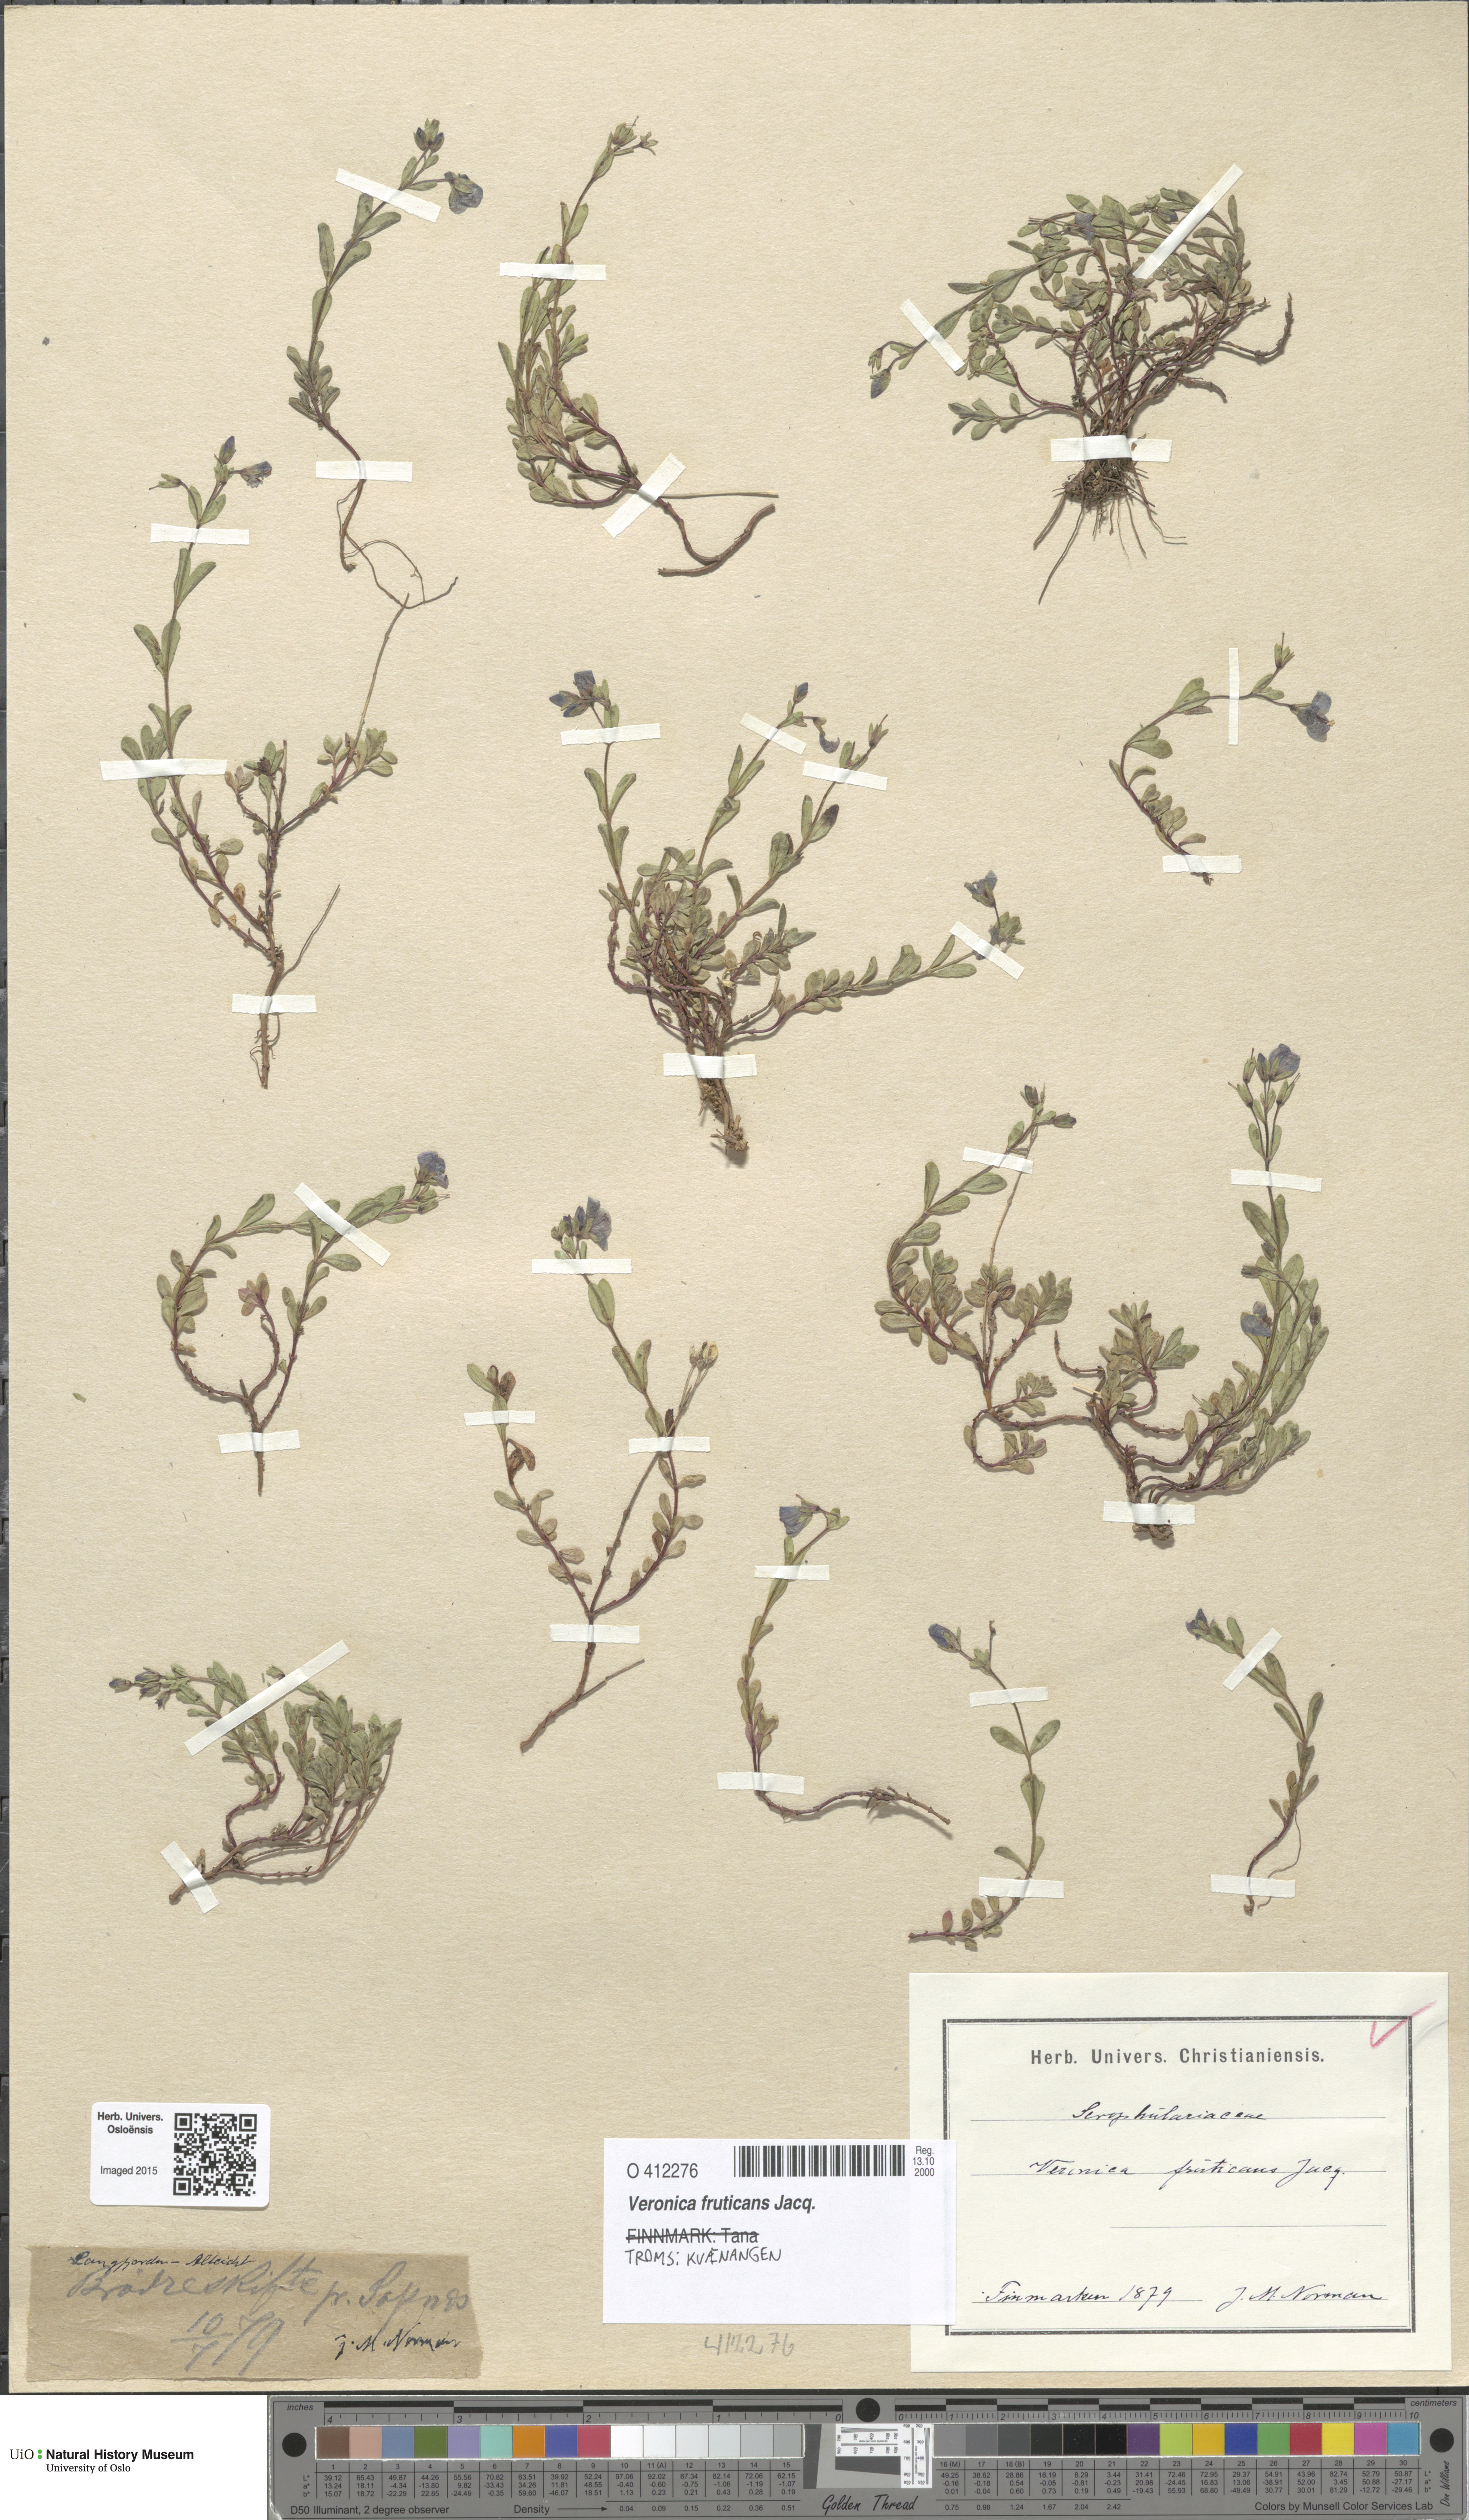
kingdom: Plantae
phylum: Tracheophyta
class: Magnoliopsida
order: Lamiales
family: Plantaginaceae
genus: Veronica
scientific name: Veronica fruticans
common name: Rock speedwell
